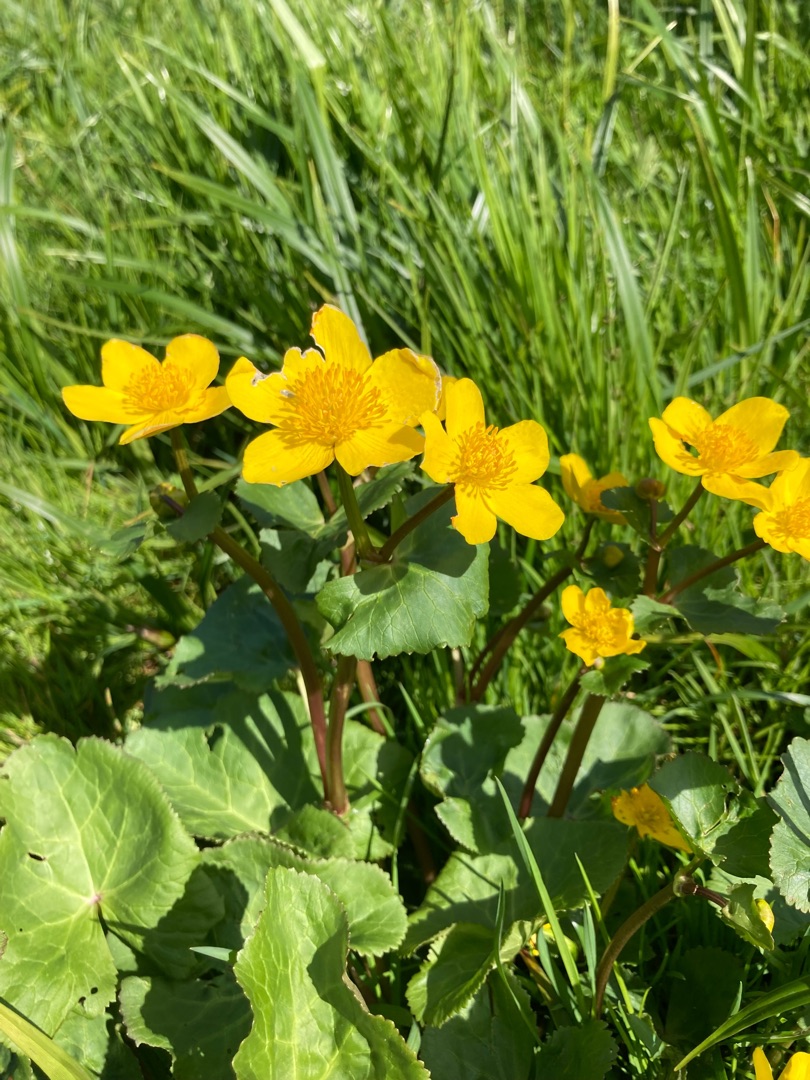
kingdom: Plantae
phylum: Tracheophyta
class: Magnoliopsida
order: Ranunculales
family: Ranunculaceae
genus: Caltha
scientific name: Caltha palustris
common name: Eng-kabbeleje
